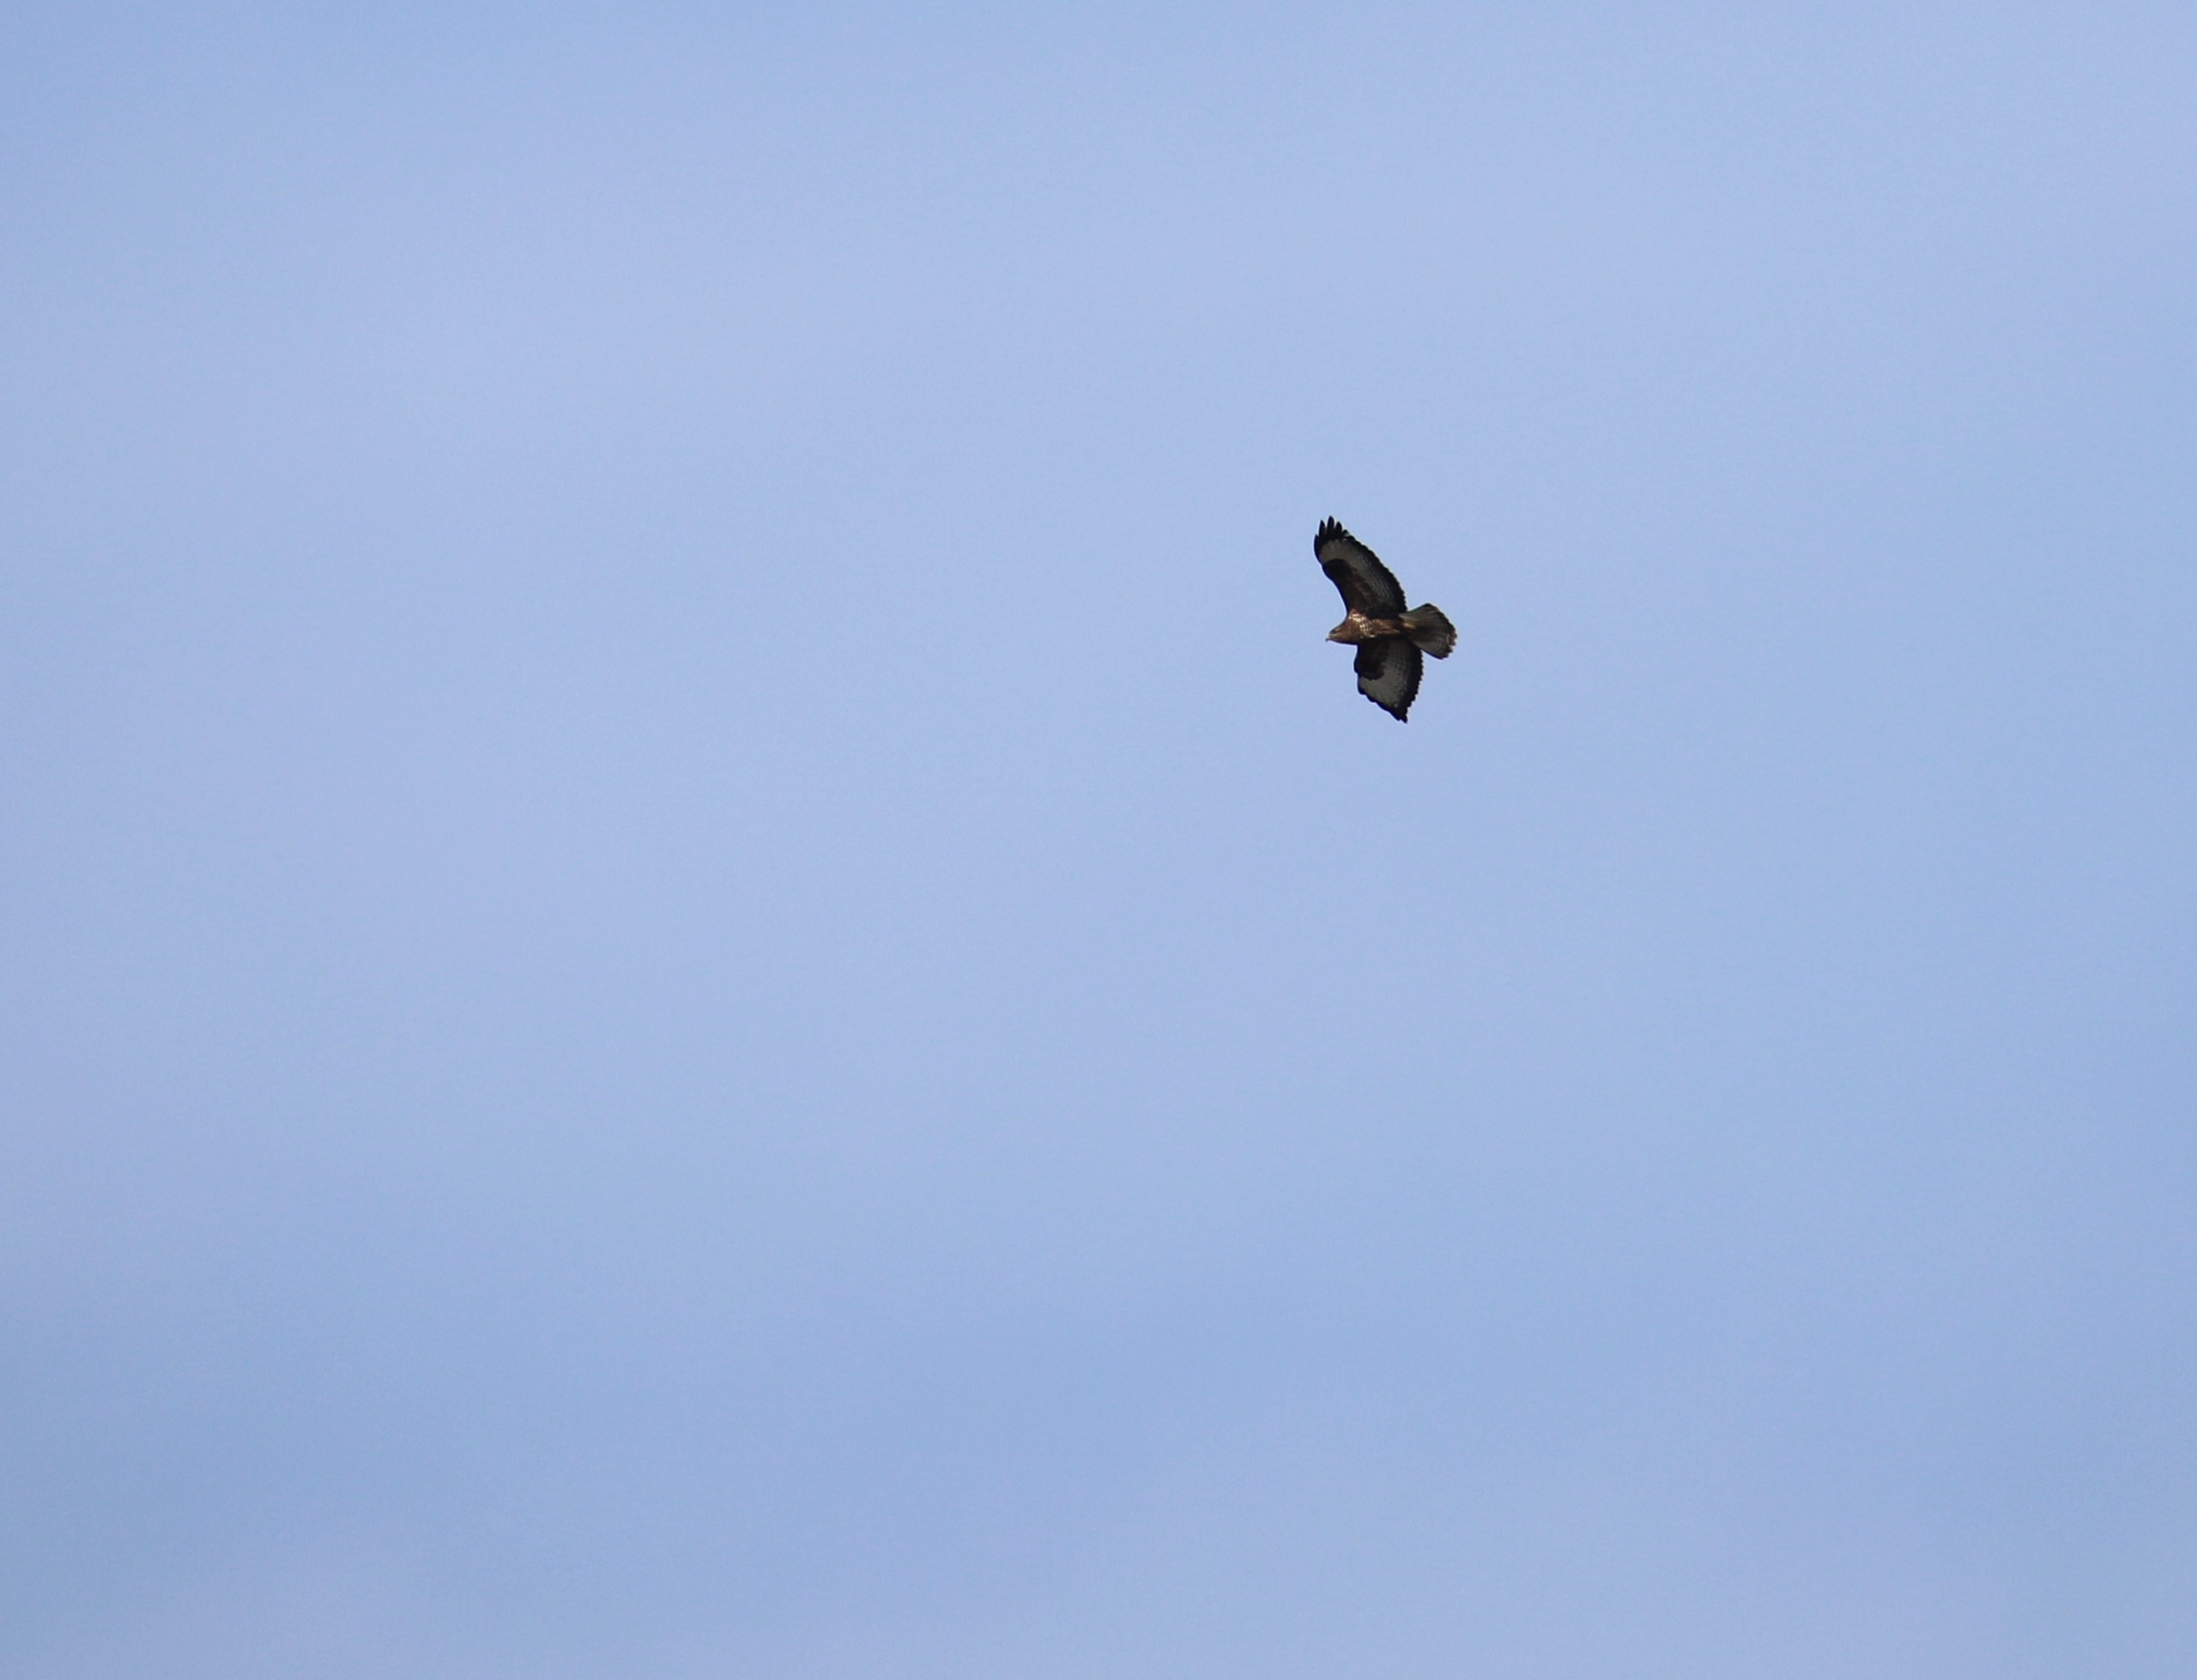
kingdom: Animalia
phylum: Chordata
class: Aves
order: Accipitriformes
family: Accipitridae
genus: Buteo
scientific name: Buteo buteo
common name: Musvåge
